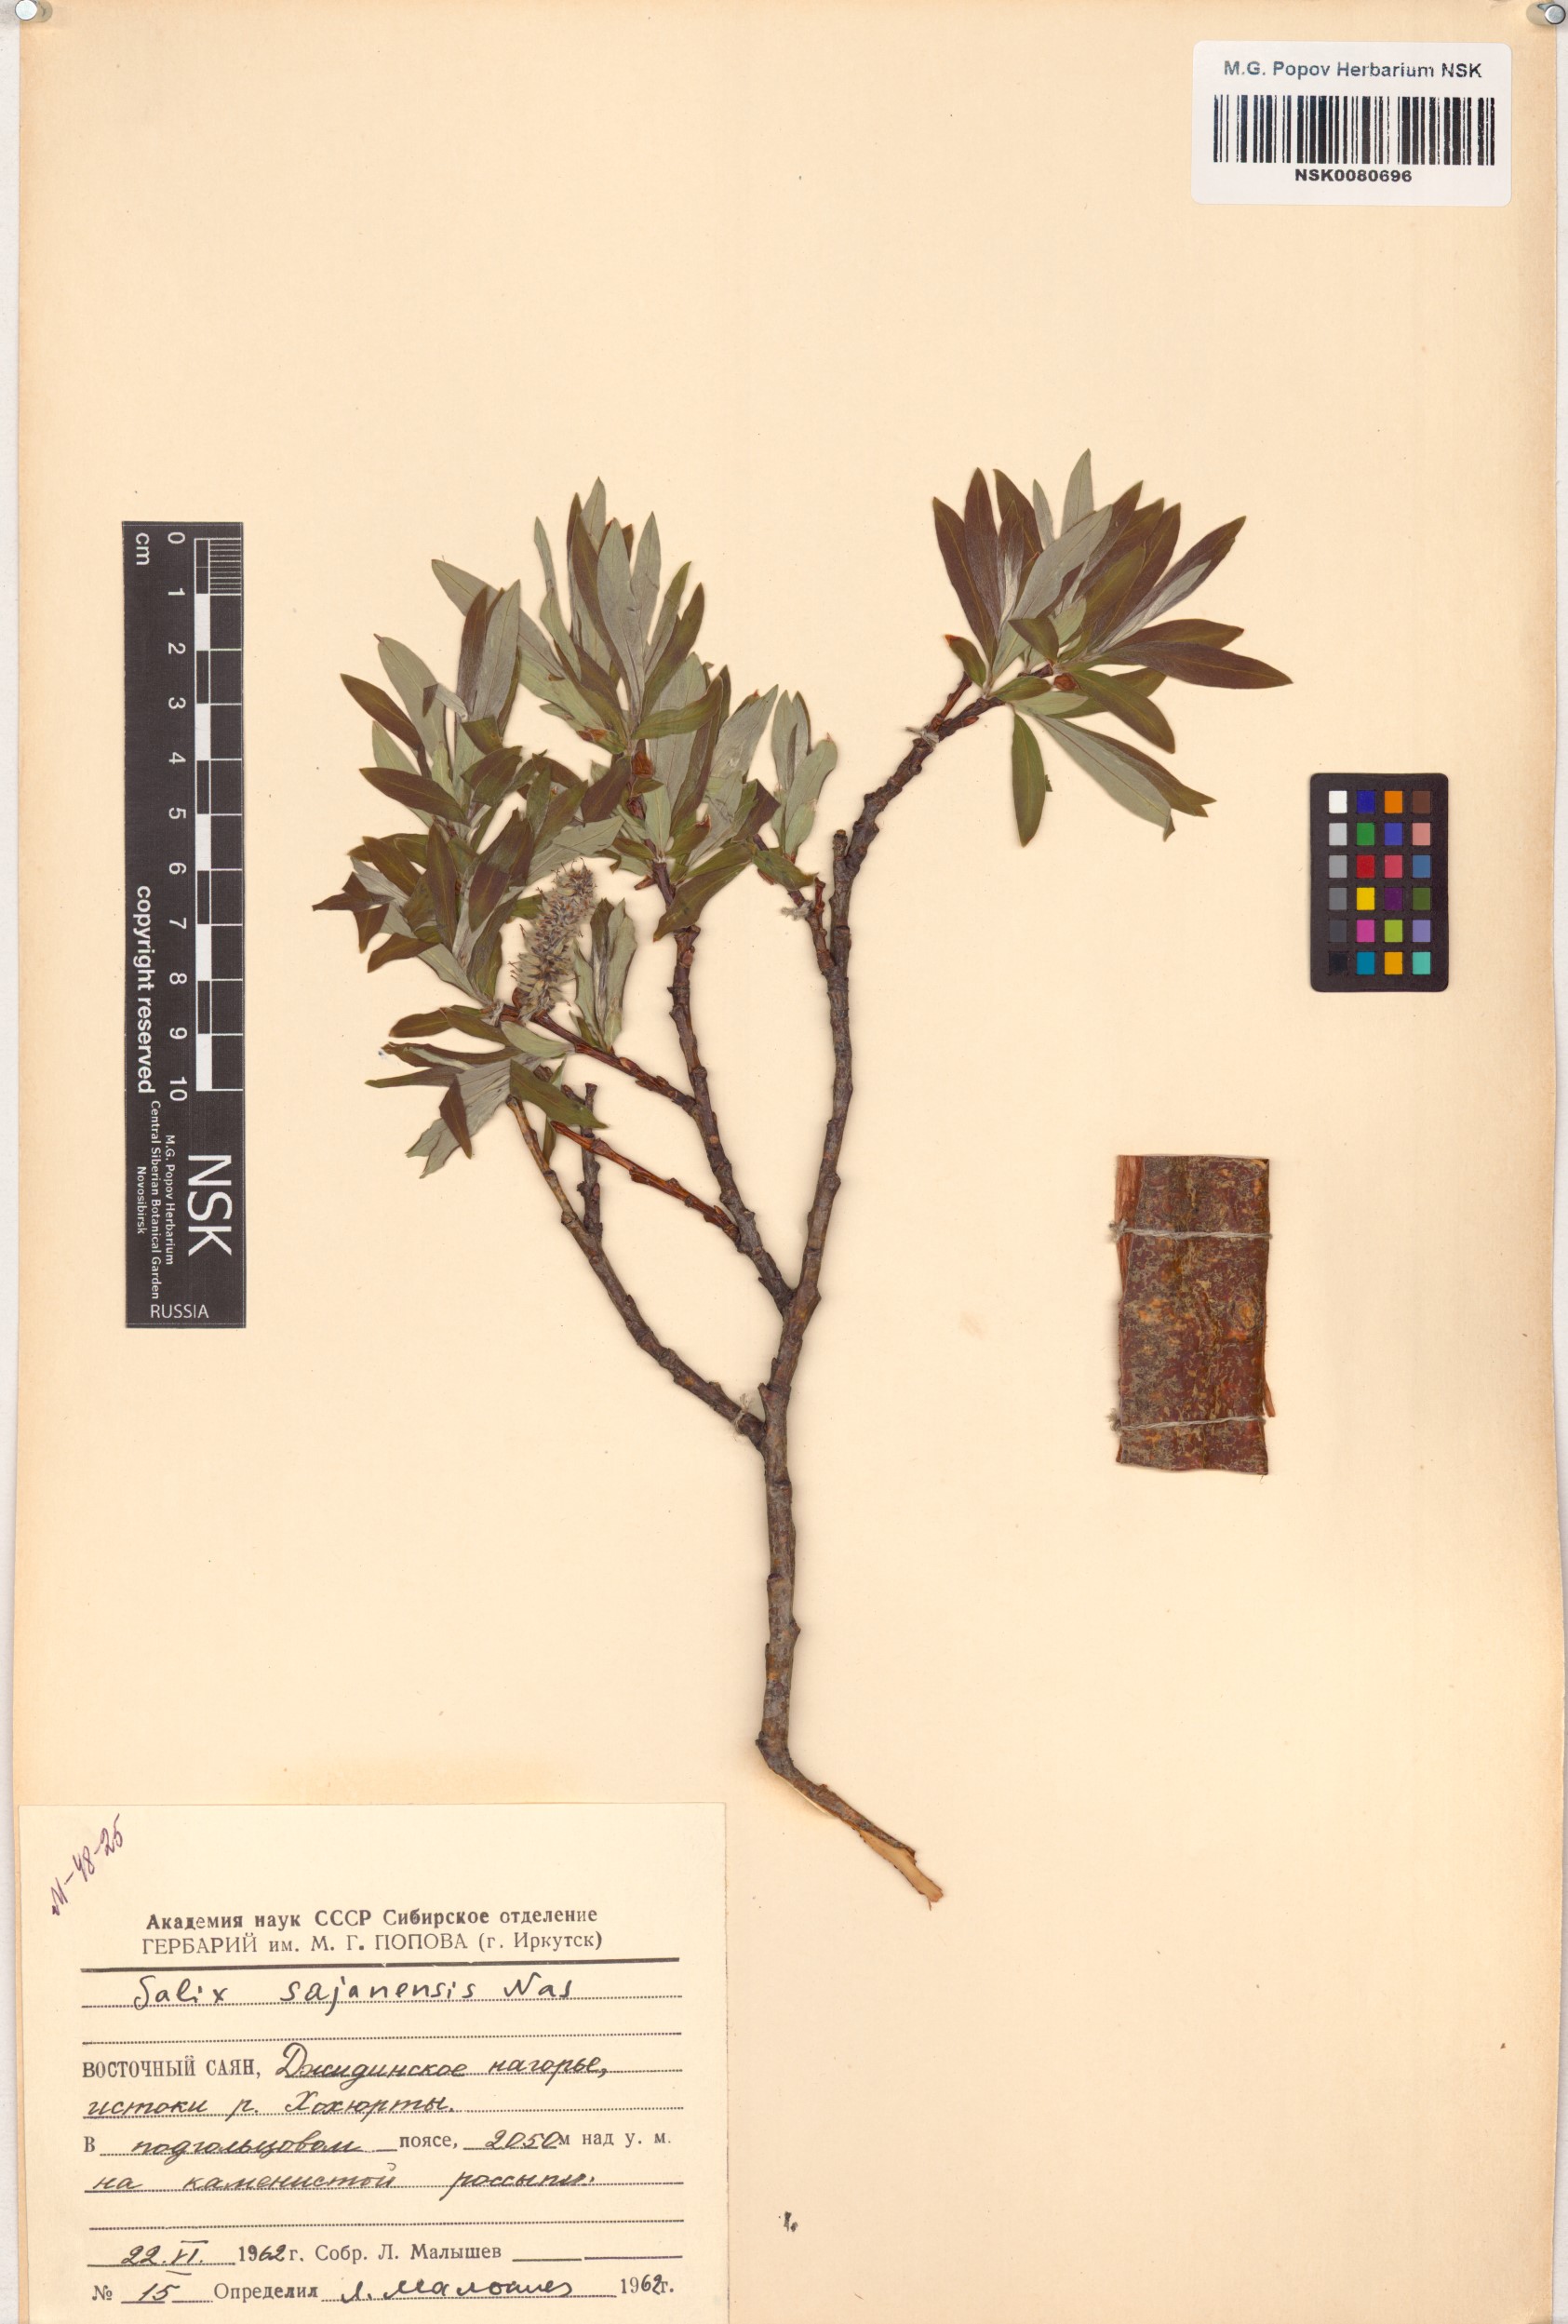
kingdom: Plantae
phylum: Tracheophyta
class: Magnoliopsida
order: Malpighiales
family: Salicaceae
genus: Salix
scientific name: Salix sajanensis
